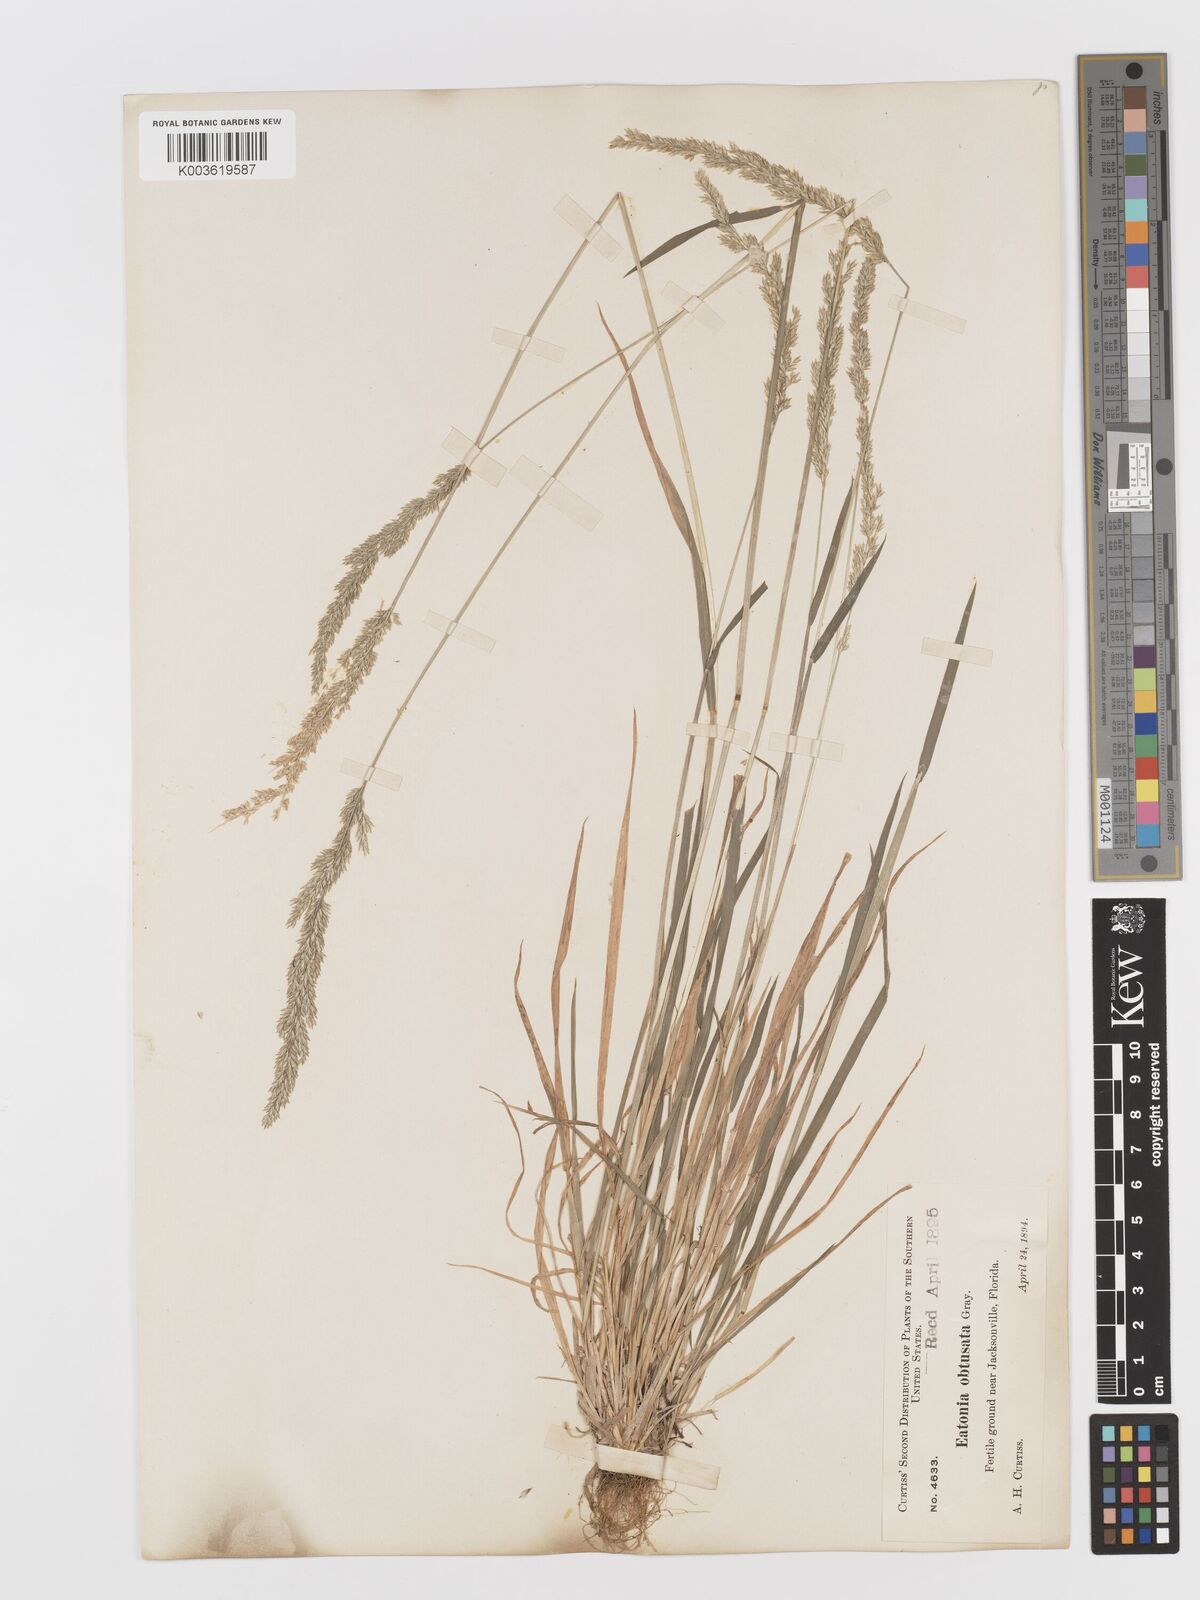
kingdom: Plantae
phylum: Tracheophyta
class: Liliopsida
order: Poales
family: Poaceae
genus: Sphenopholis
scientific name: Sphenopholis obtusata
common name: Prairie grass
